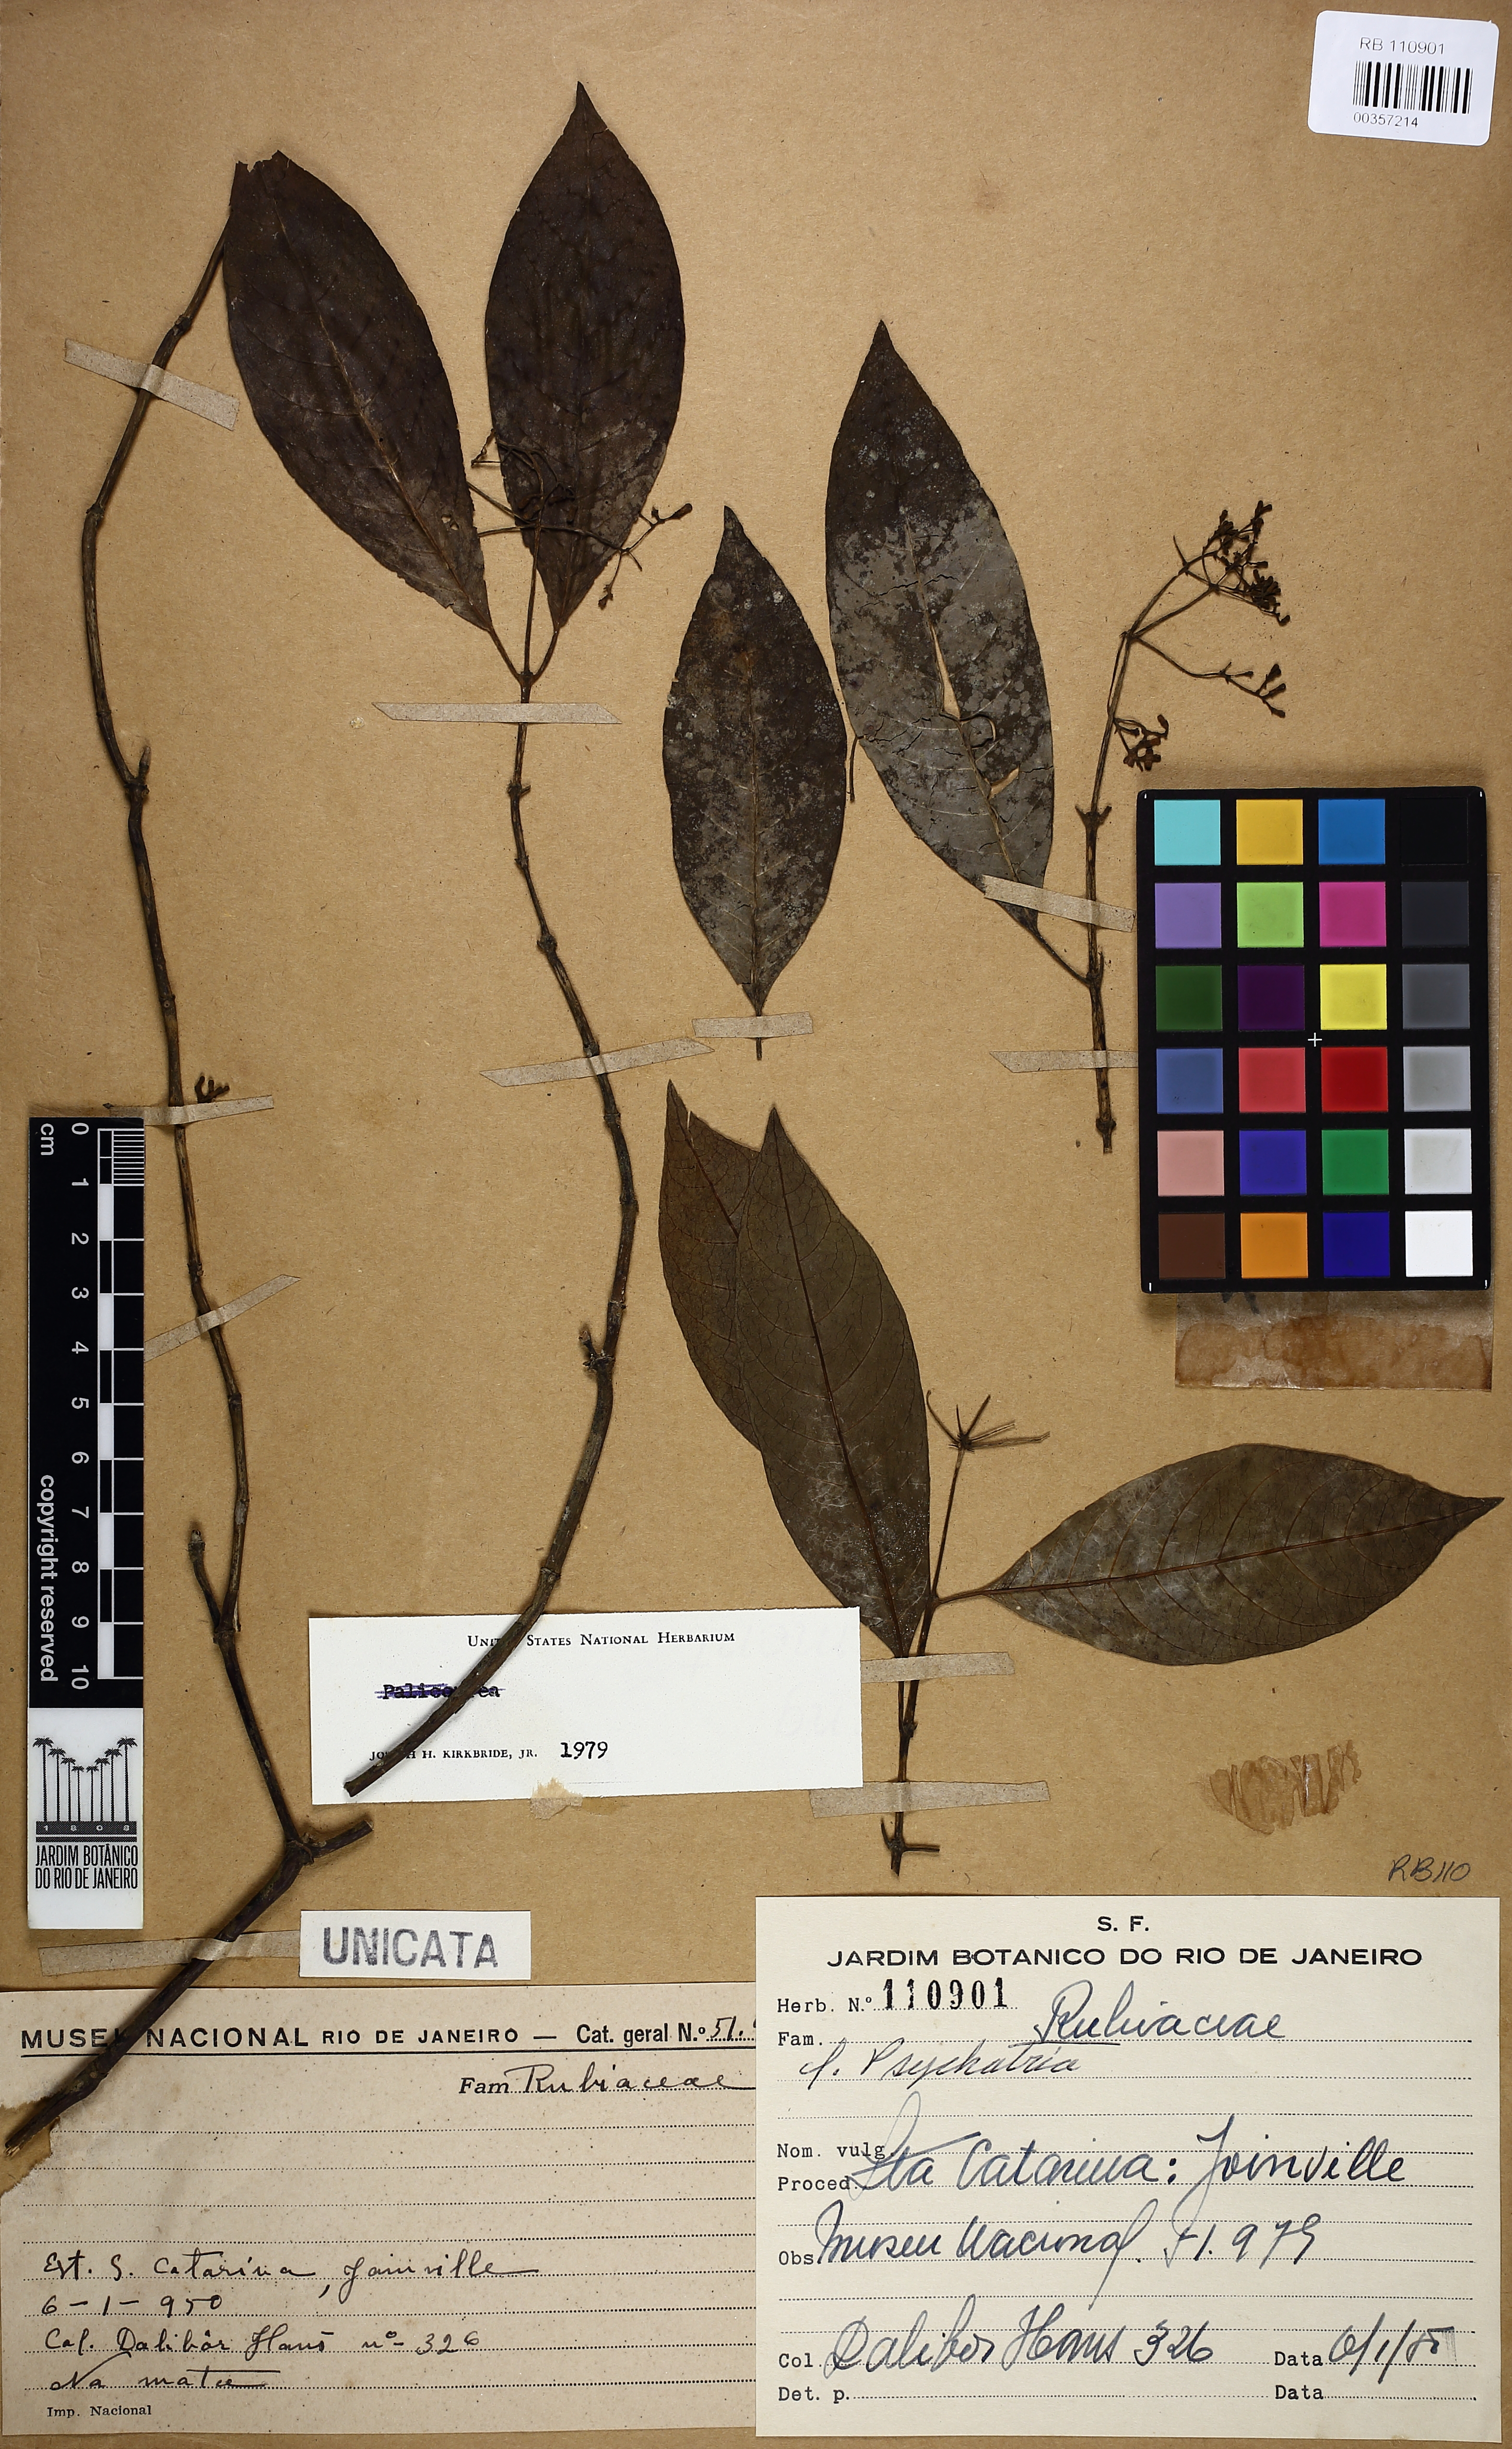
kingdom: Plantae
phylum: Tracheophyta
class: Magnoliopsida
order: Gentianales
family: Rubiaceae
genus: Psychotria
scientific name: Psychotria
